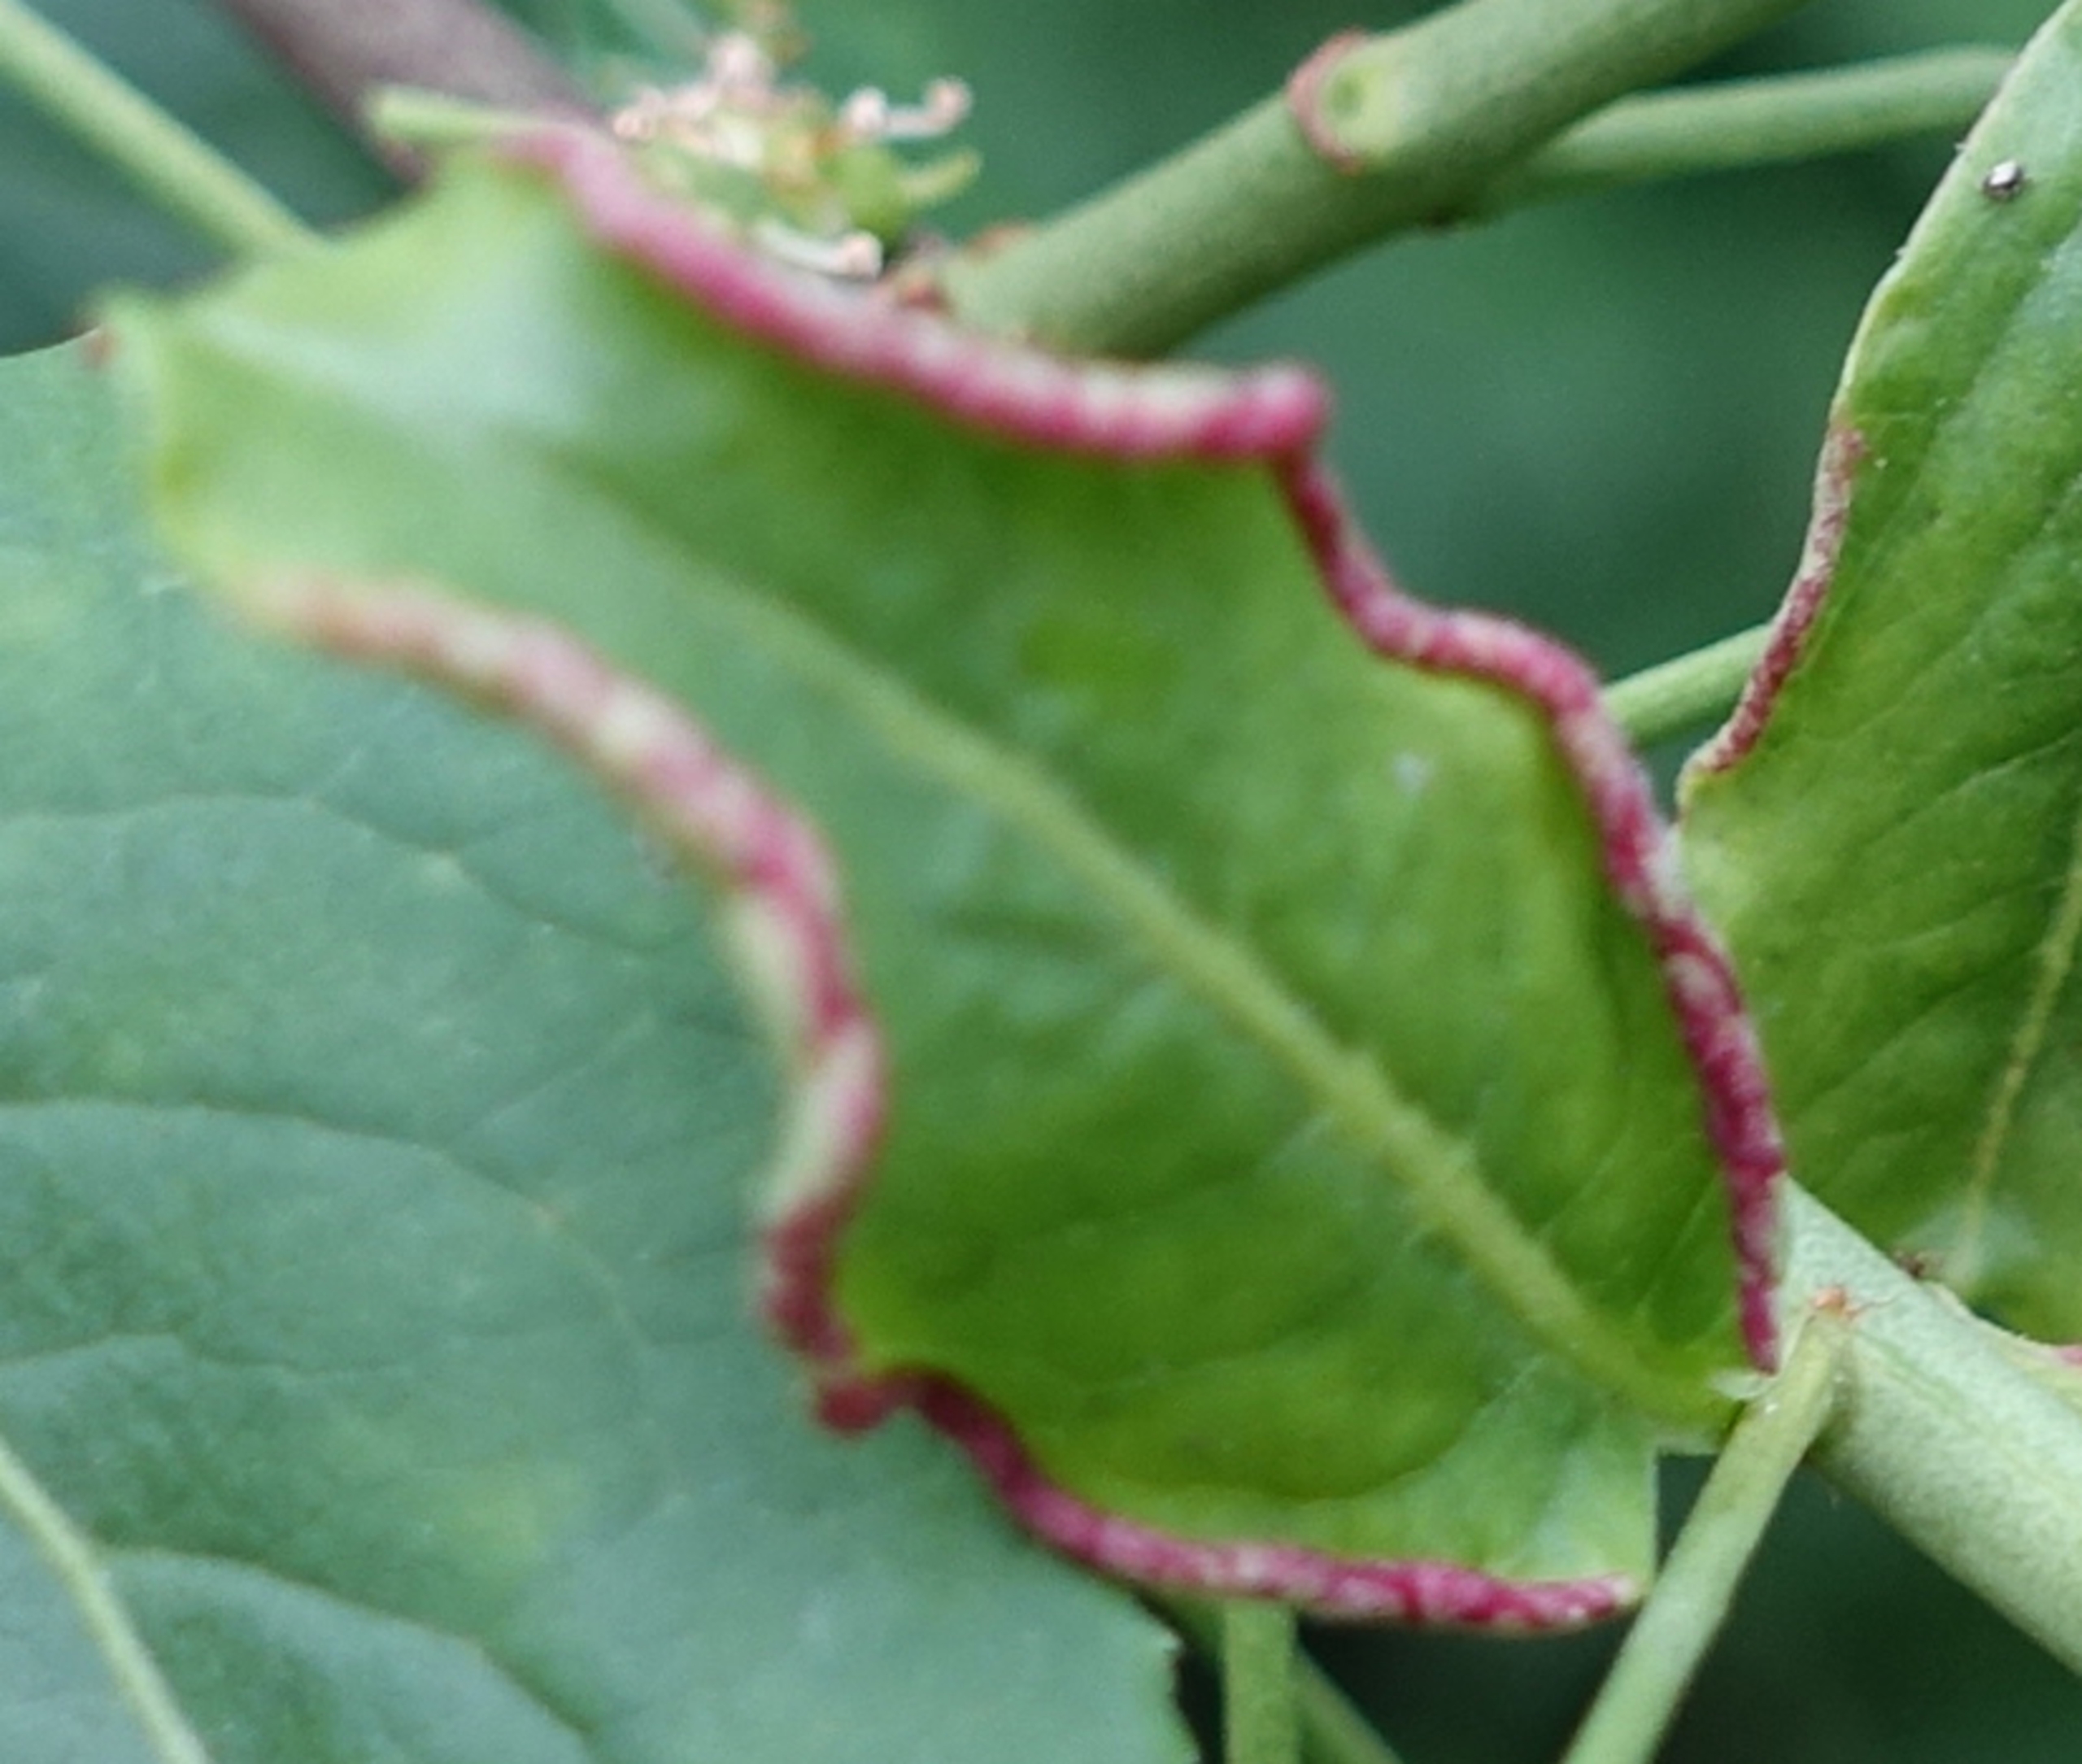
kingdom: Animalia
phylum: Arthropoda
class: Arachnida
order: Trombidiformes
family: Eriophyidae
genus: Stenacis
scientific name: Stenacis evonymi
